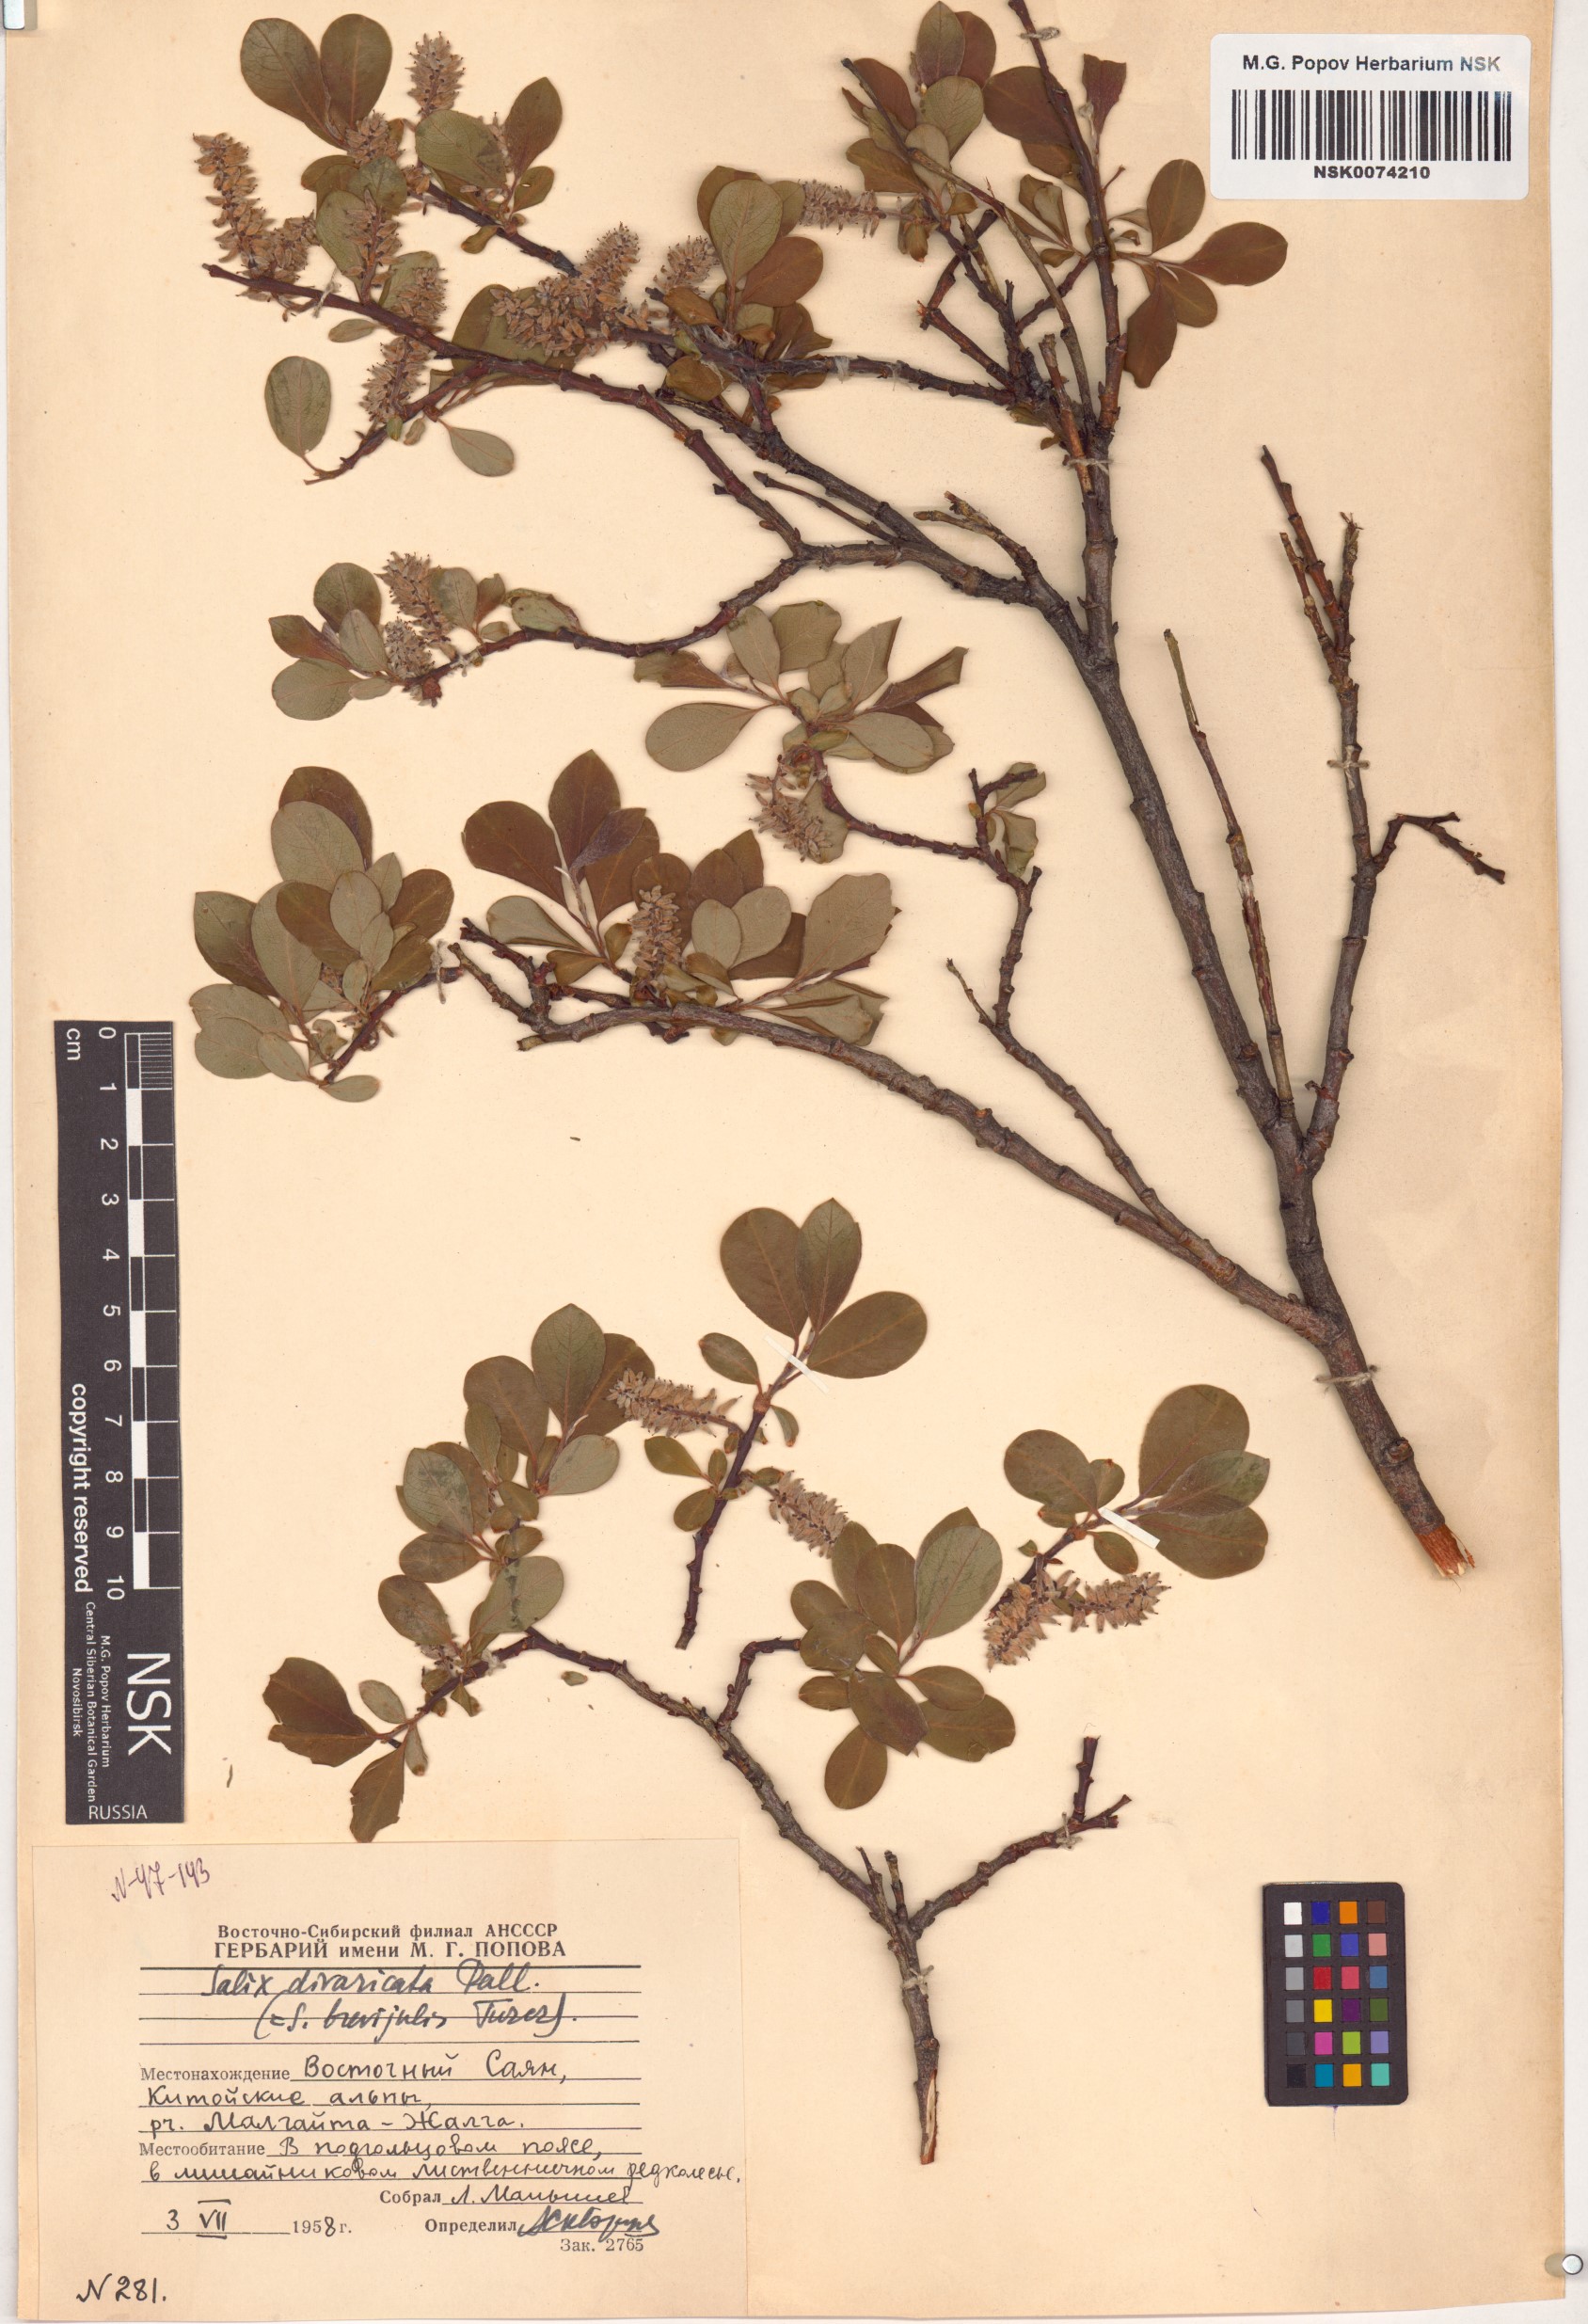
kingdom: Plantae
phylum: Tracheophyta
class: Magnoliopsida
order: Malpighiales
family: Salicaceae
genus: Salix
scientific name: Salix divaricata
